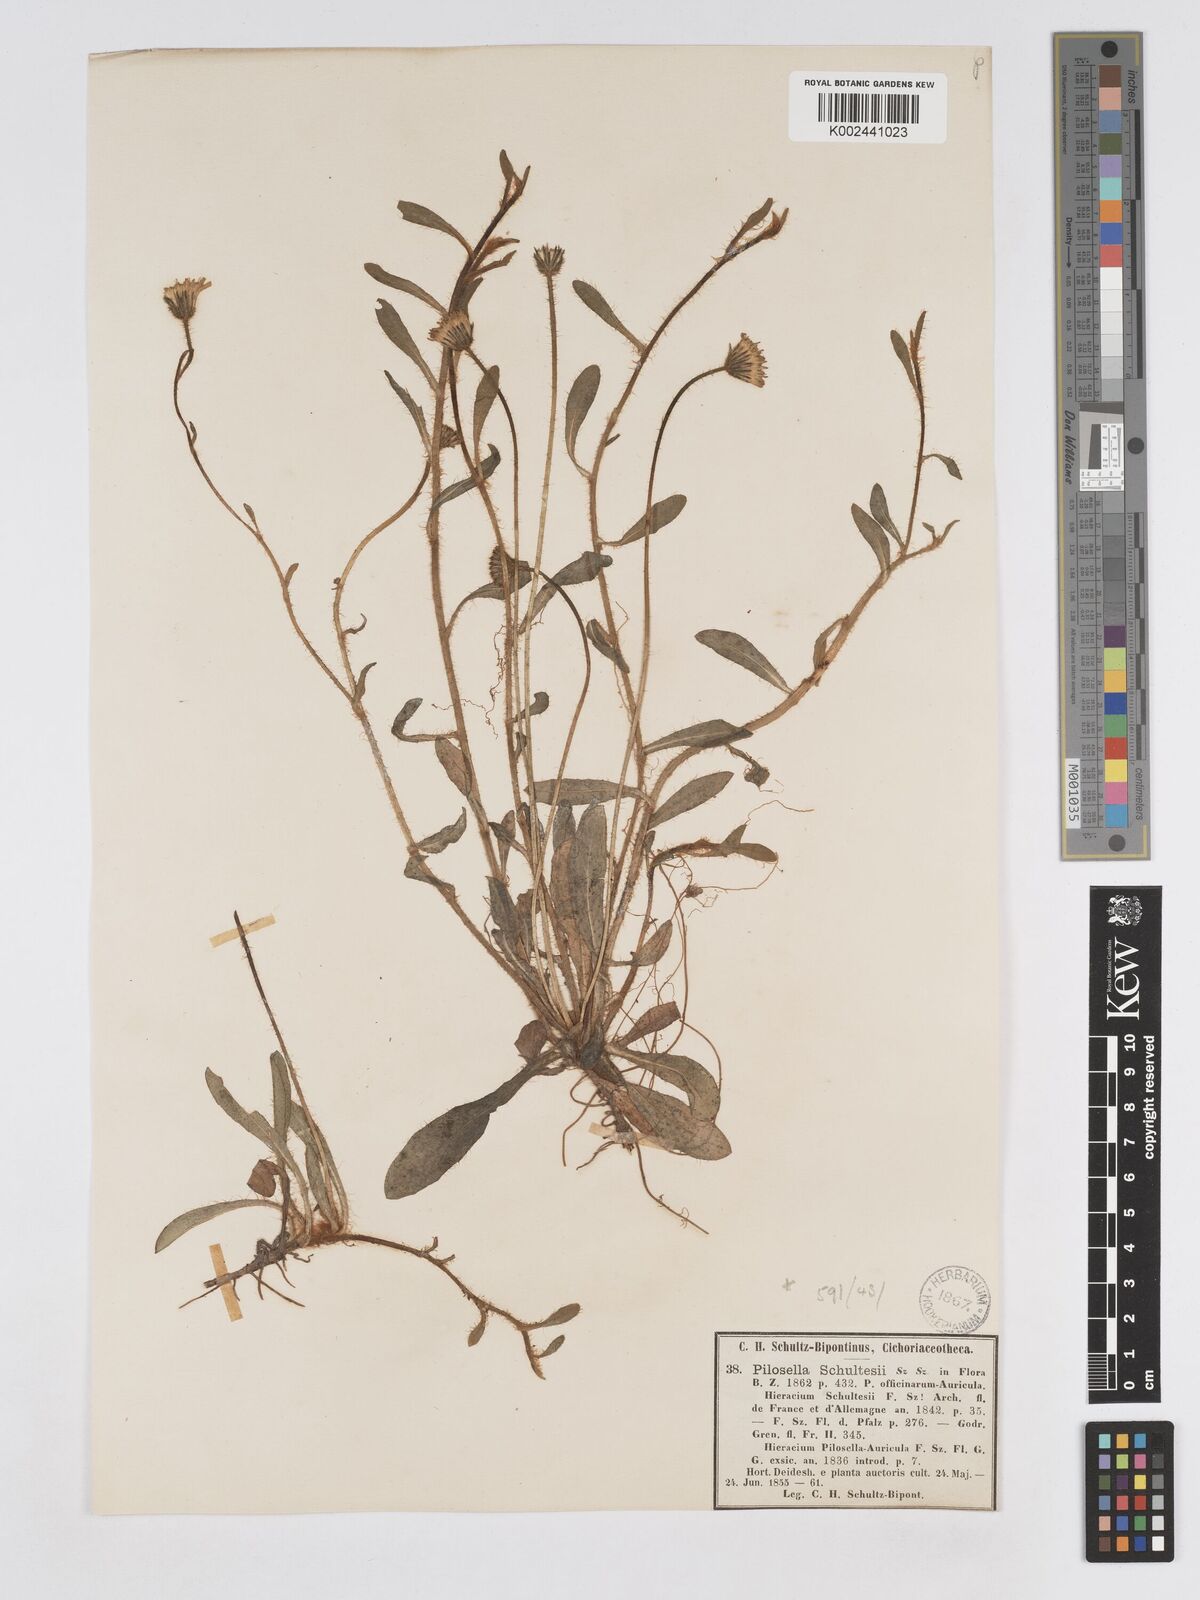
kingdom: Plantae
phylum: Tracheophyta
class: Magnoliopsida
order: Asterales
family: Asteraceae
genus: Pilosella
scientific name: Pilosella schultesii
